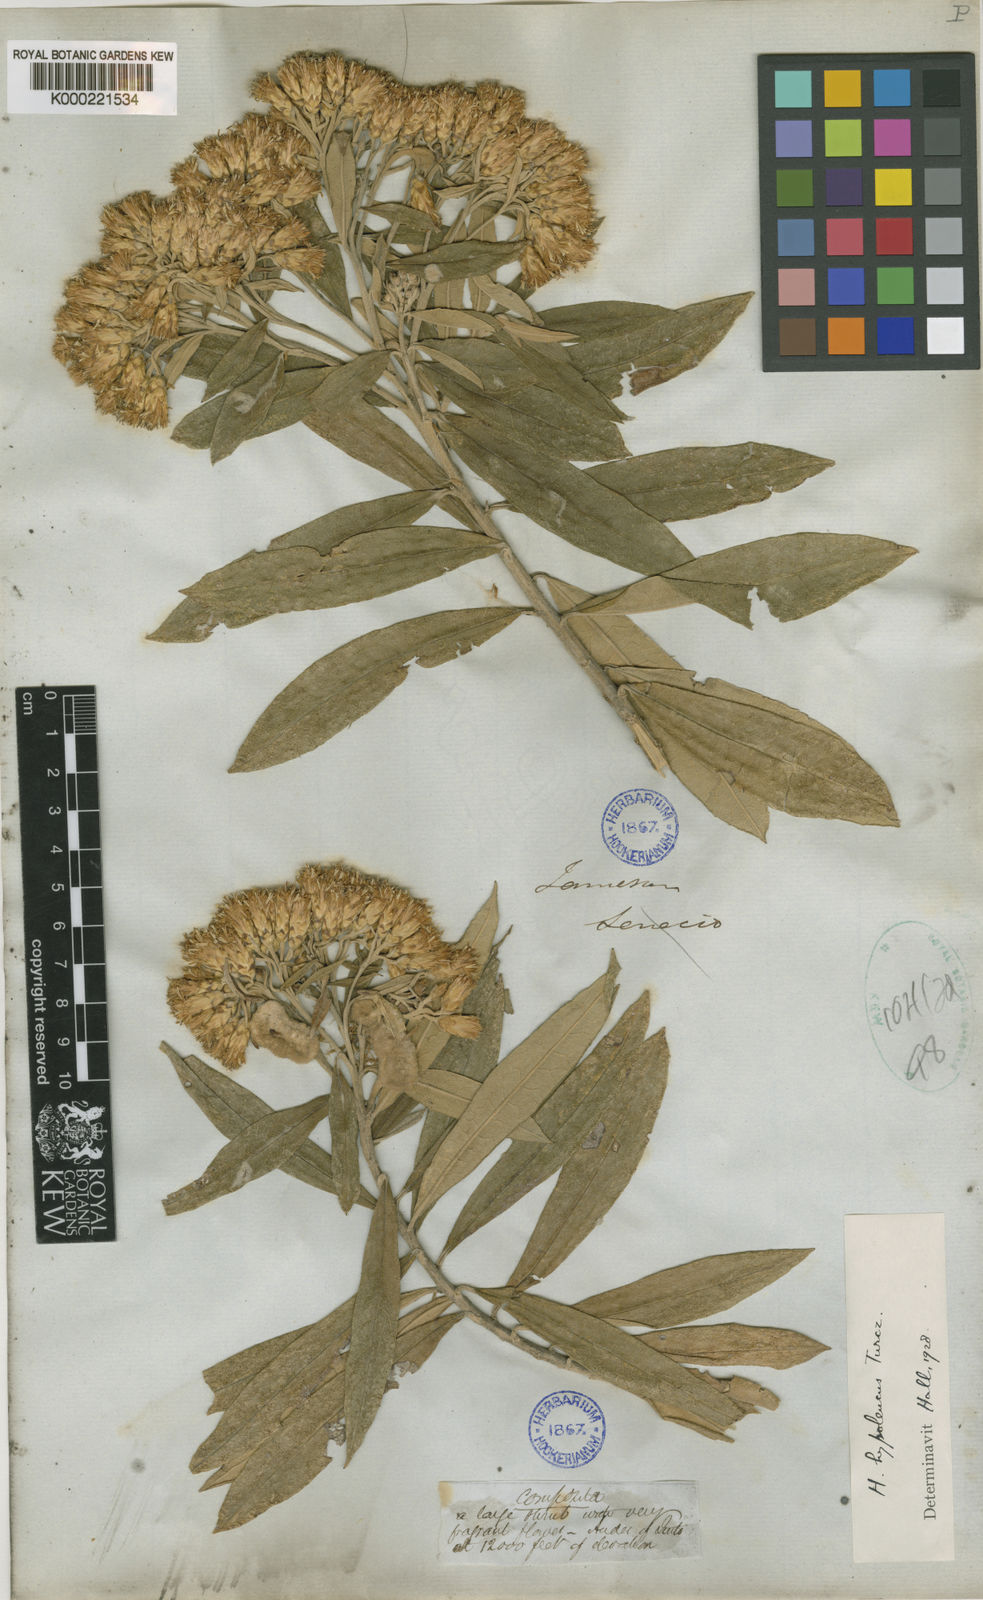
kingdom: Plantae
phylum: Tracheophyta
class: Magnoliopsida
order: Asterales
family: Asteraceae
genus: Llerasia
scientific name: Llerasia soratensis
